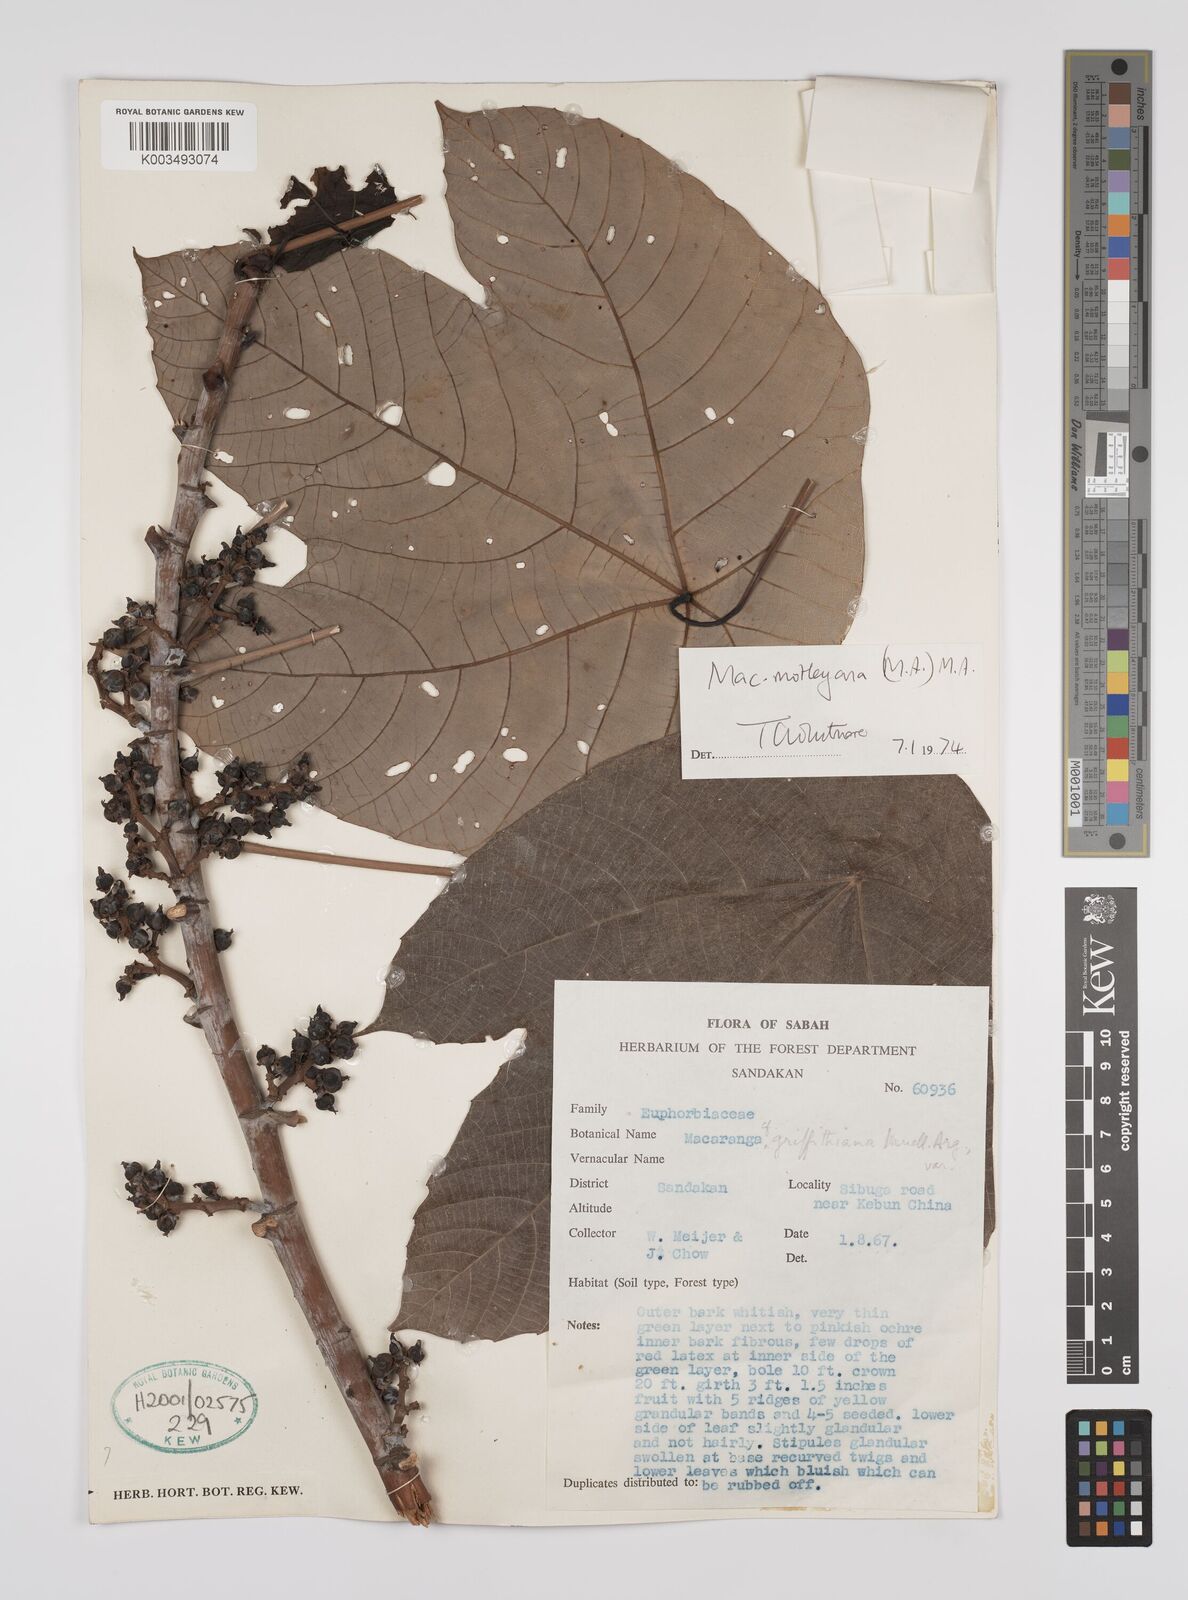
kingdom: Plantae
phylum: Tracheophyta
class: Magnoliopsida
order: Malpighiales
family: Euphorbiaceae
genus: Macaranga
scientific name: Macaranga motleyana
